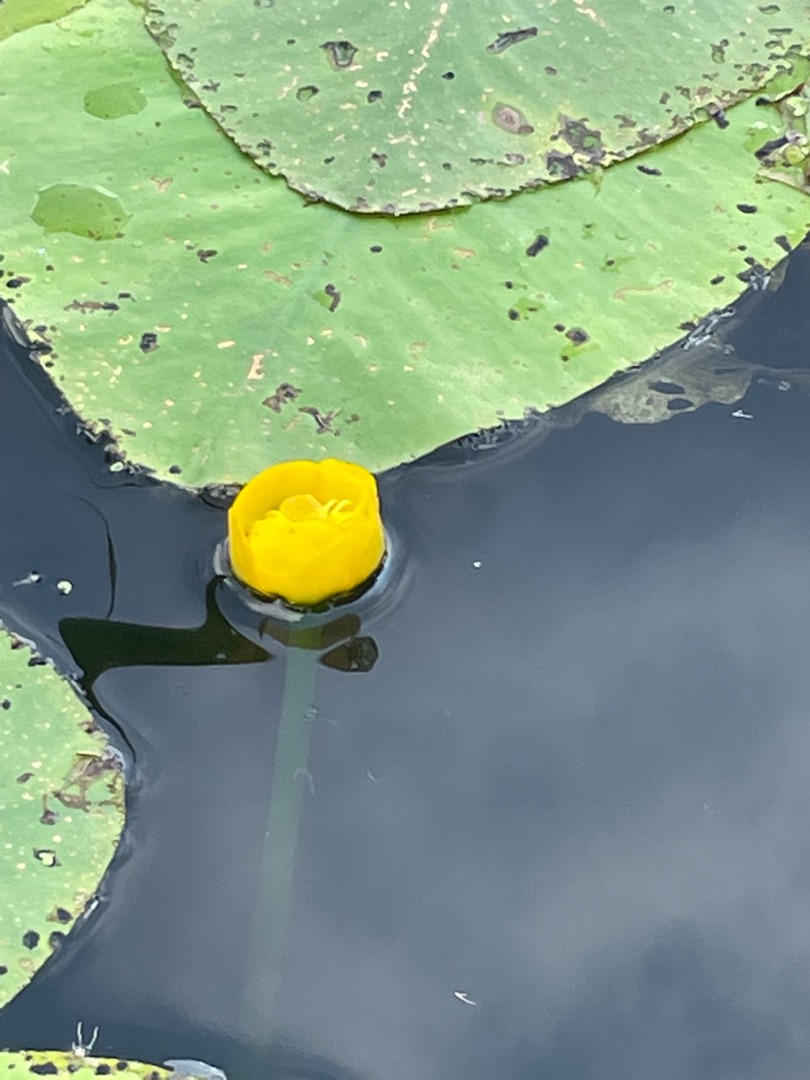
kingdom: Plantae
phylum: Tracheophyta
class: Magnoliopsida
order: Nymphaeales
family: Nymphaeaceae
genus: Nuphar
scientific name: Nuphar lutea
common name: Gul åkande
